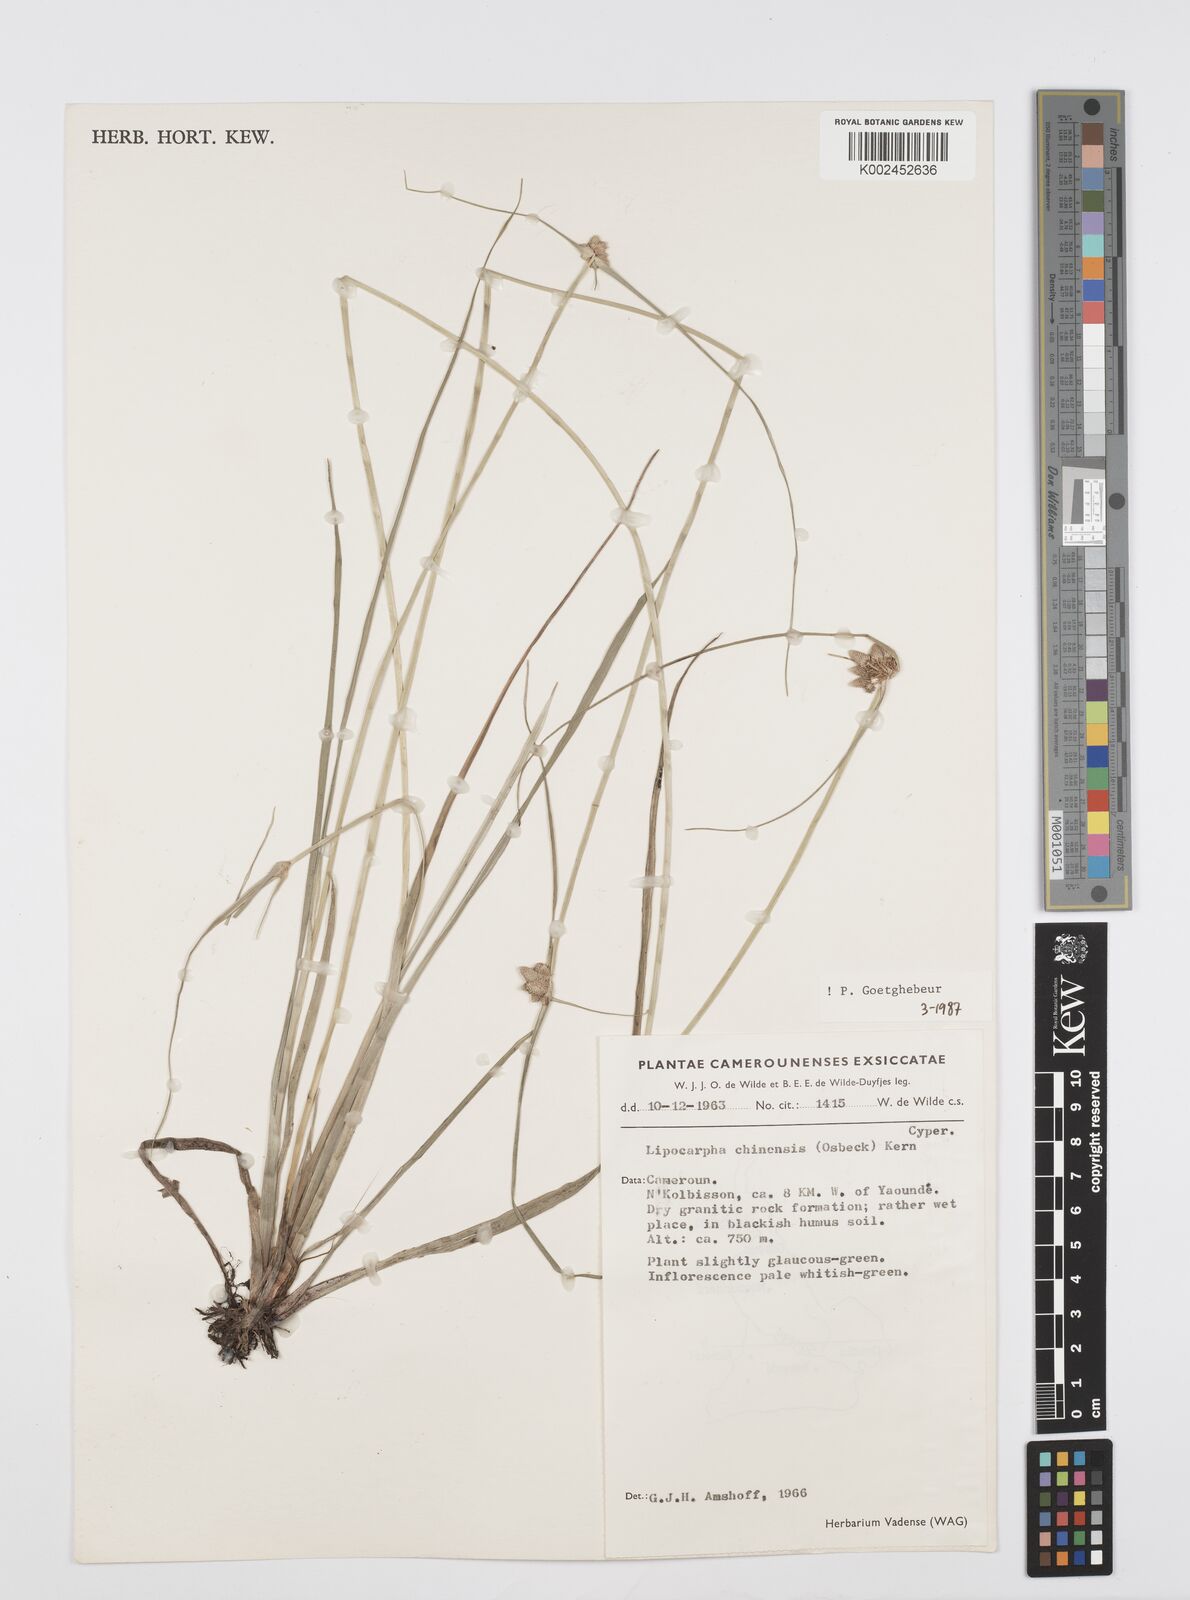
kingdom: Plantae
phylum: Tracheophyta
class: Liliopsida
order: Poales
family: Cyperaceae
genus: Cyperus
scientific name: Cyperus albescens
